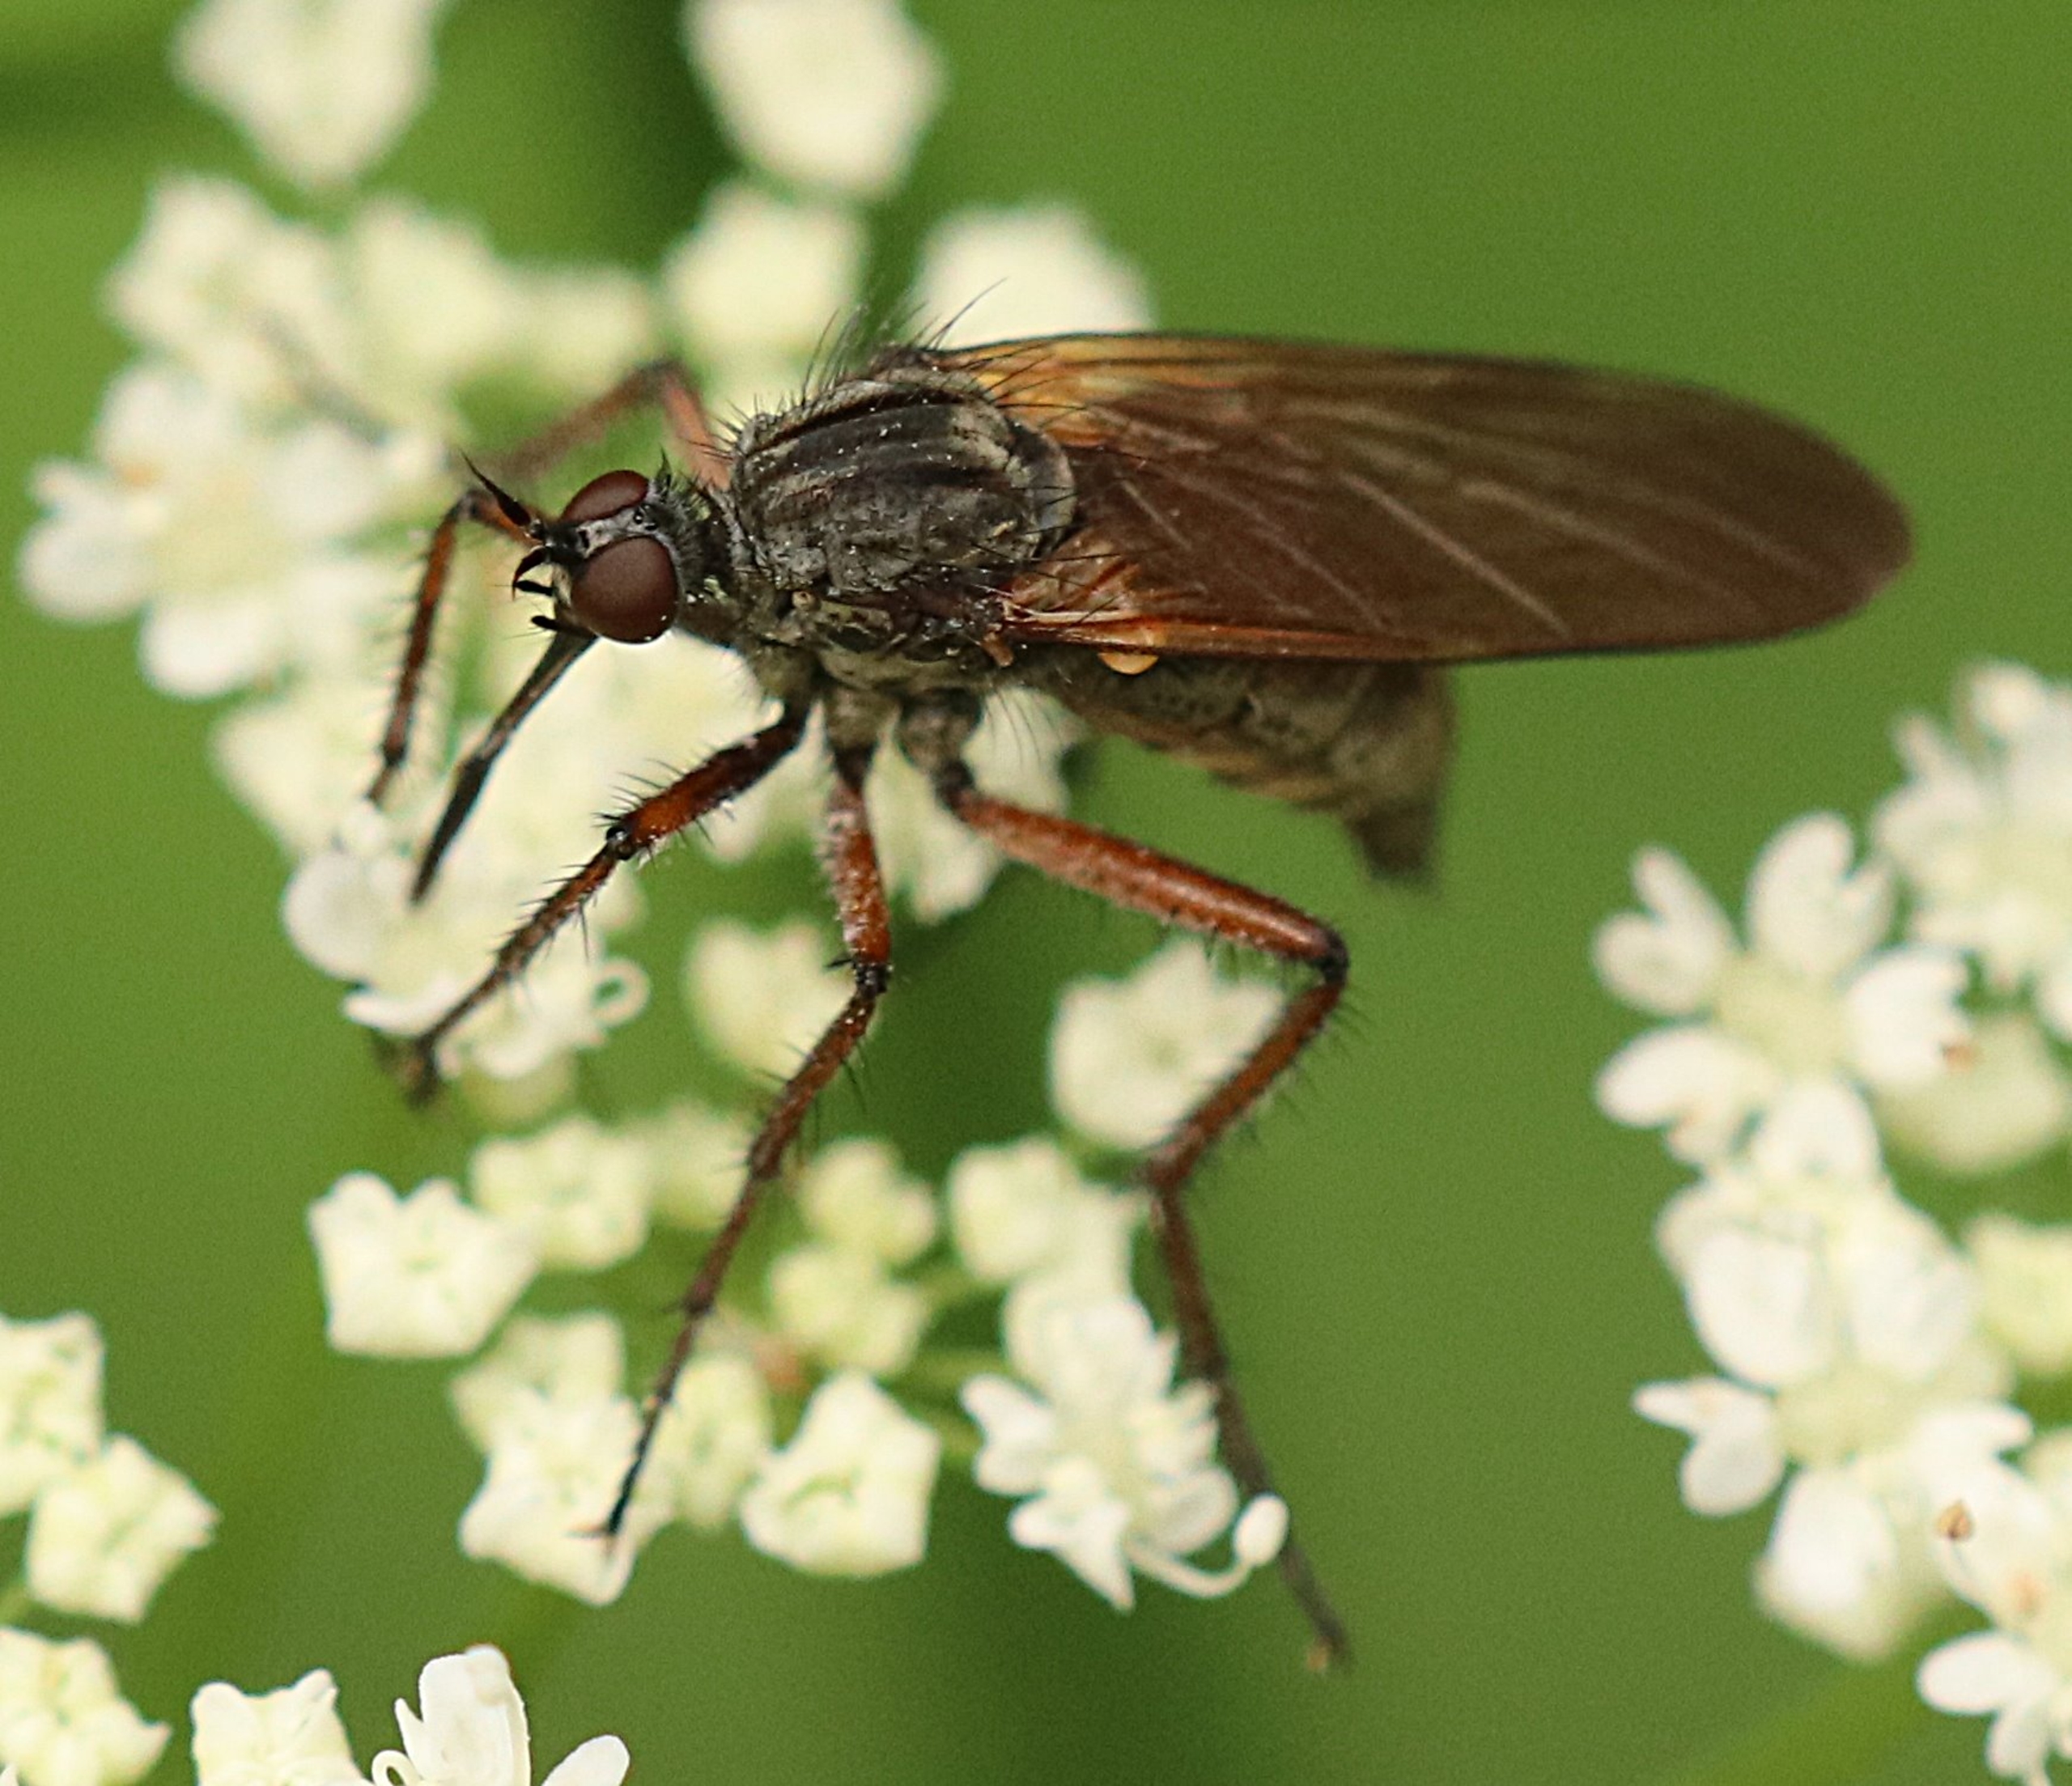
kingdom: Animalia
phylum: Arthropoda
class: Insecta
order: Diptera
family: Empididae
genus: Empis
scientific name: Empis tessellata
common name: Stor danseflue
